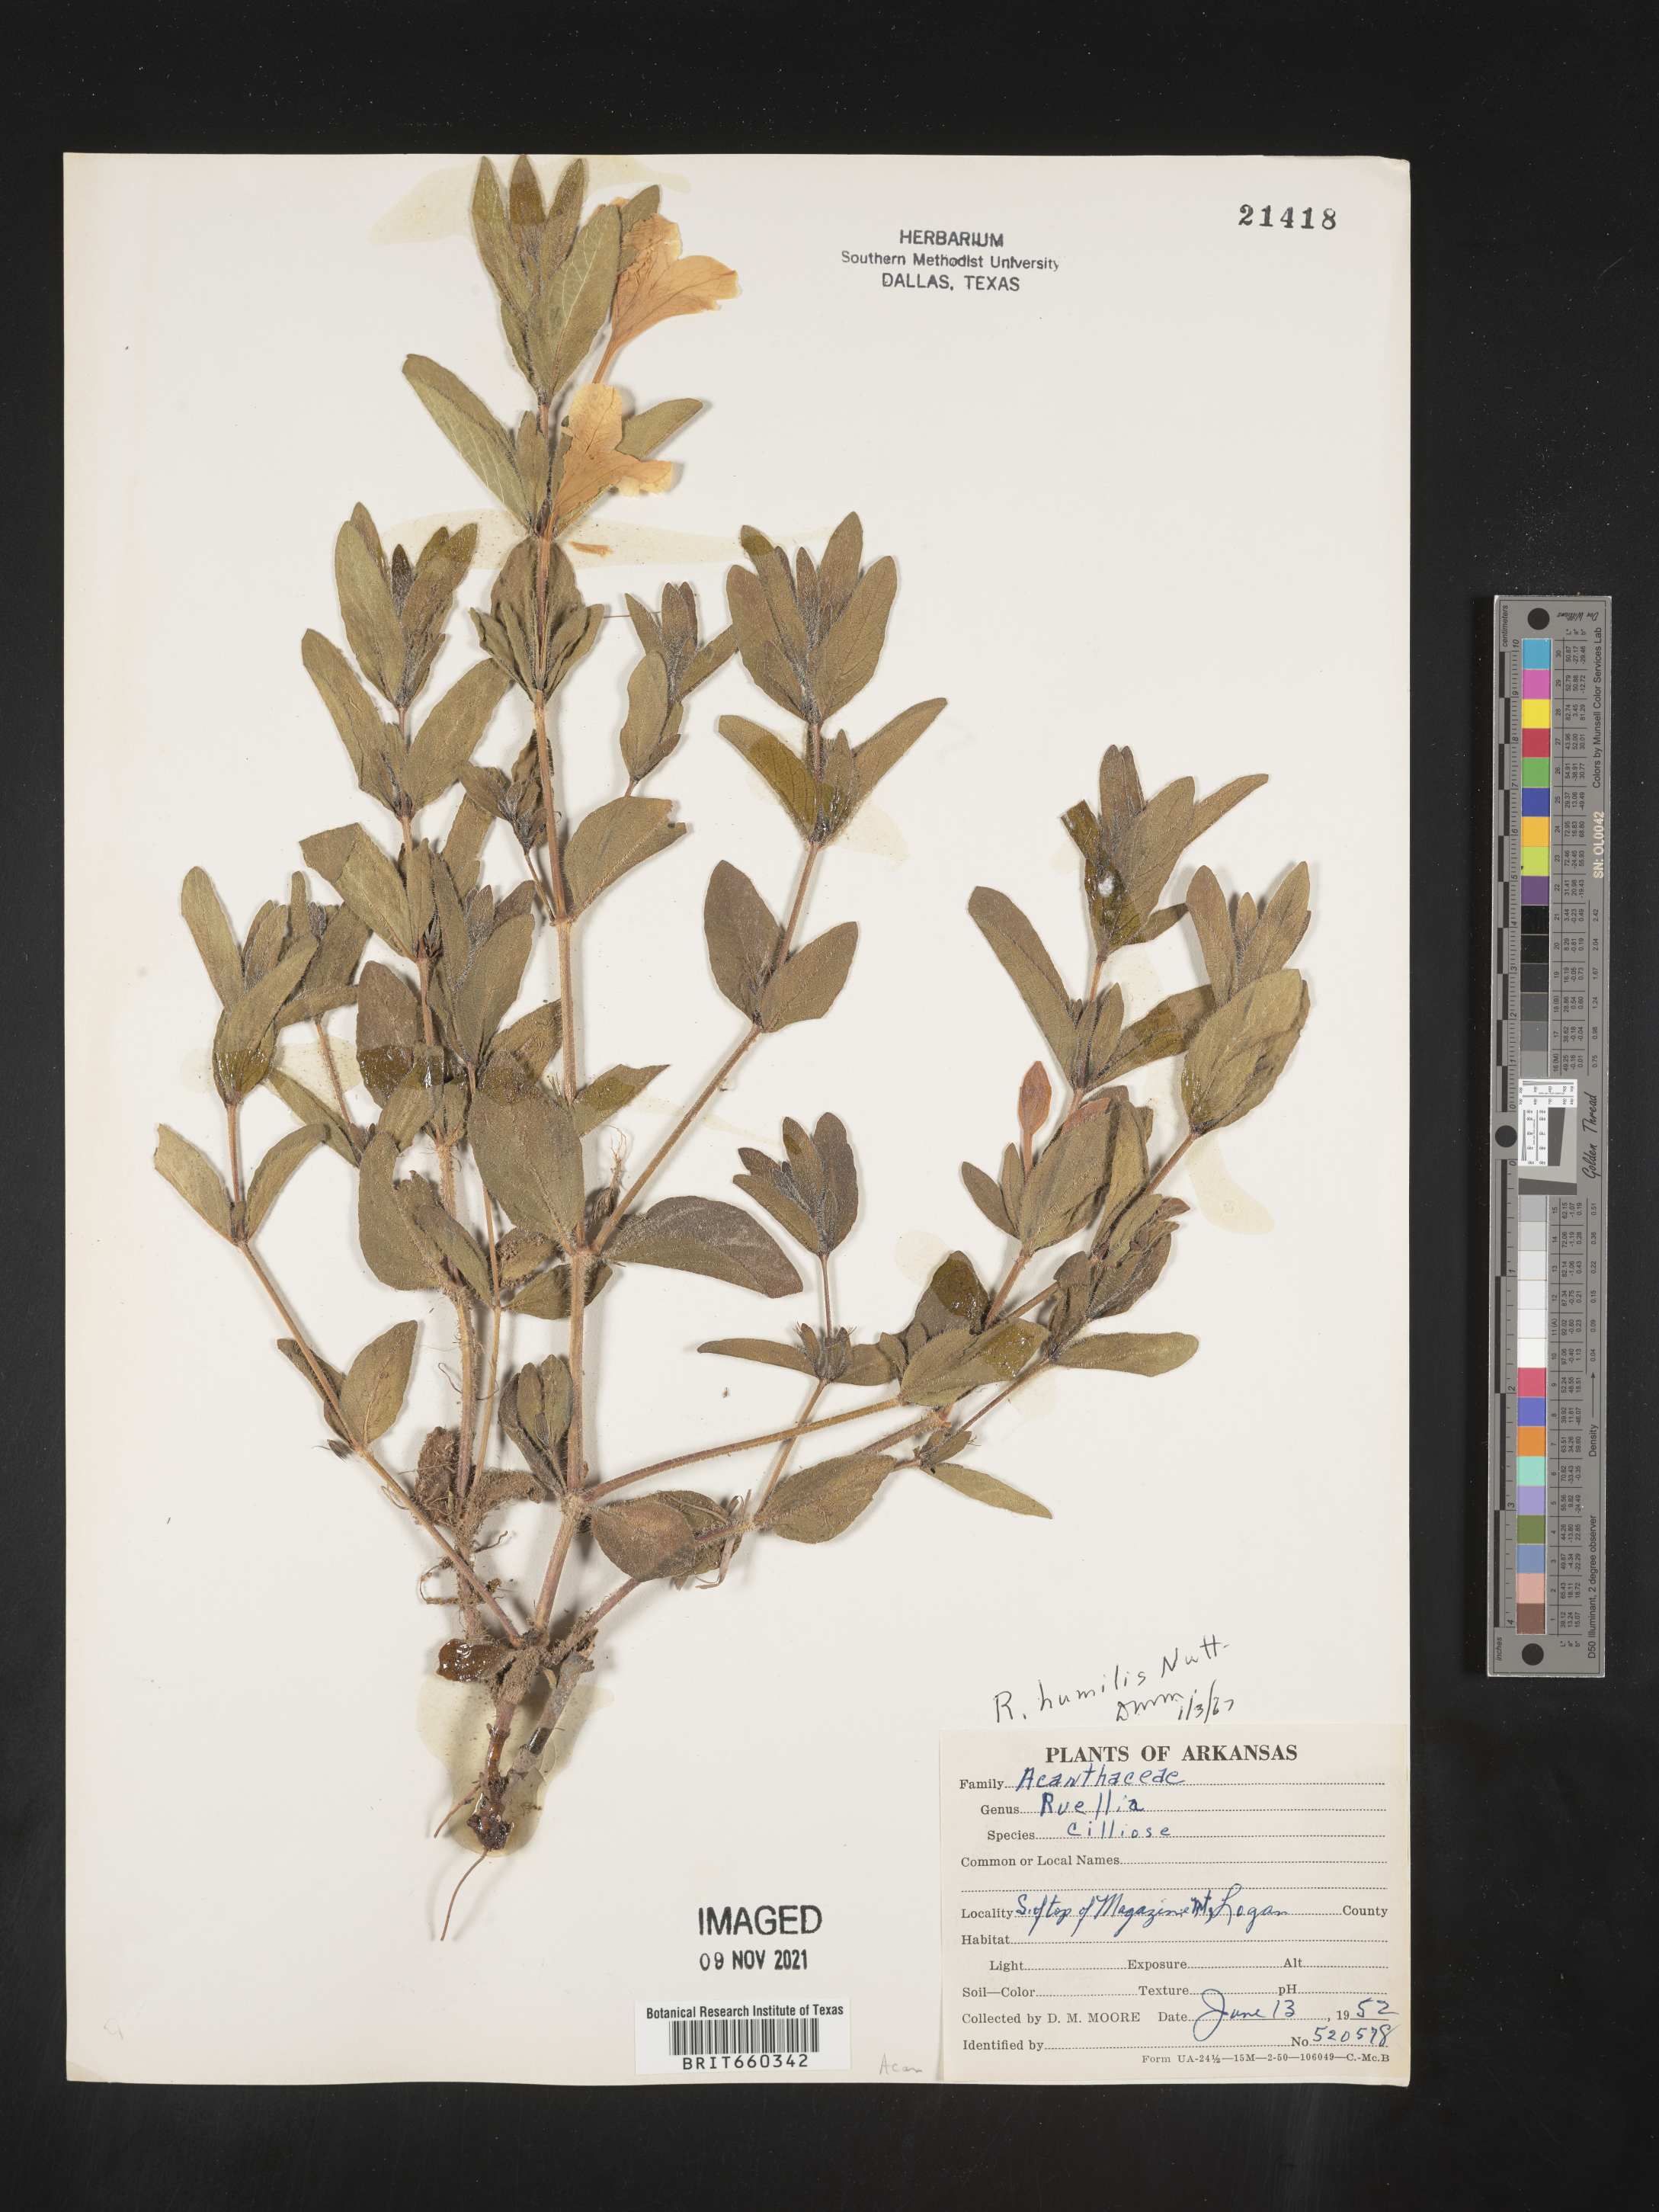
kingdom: Plantae
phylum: Tracheophyta
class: Magnoliopsida
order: Lamiales
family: Acanthaceae
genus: Ruellia
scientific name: Ruellia humilis
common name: Fringe-leaf ruellia
